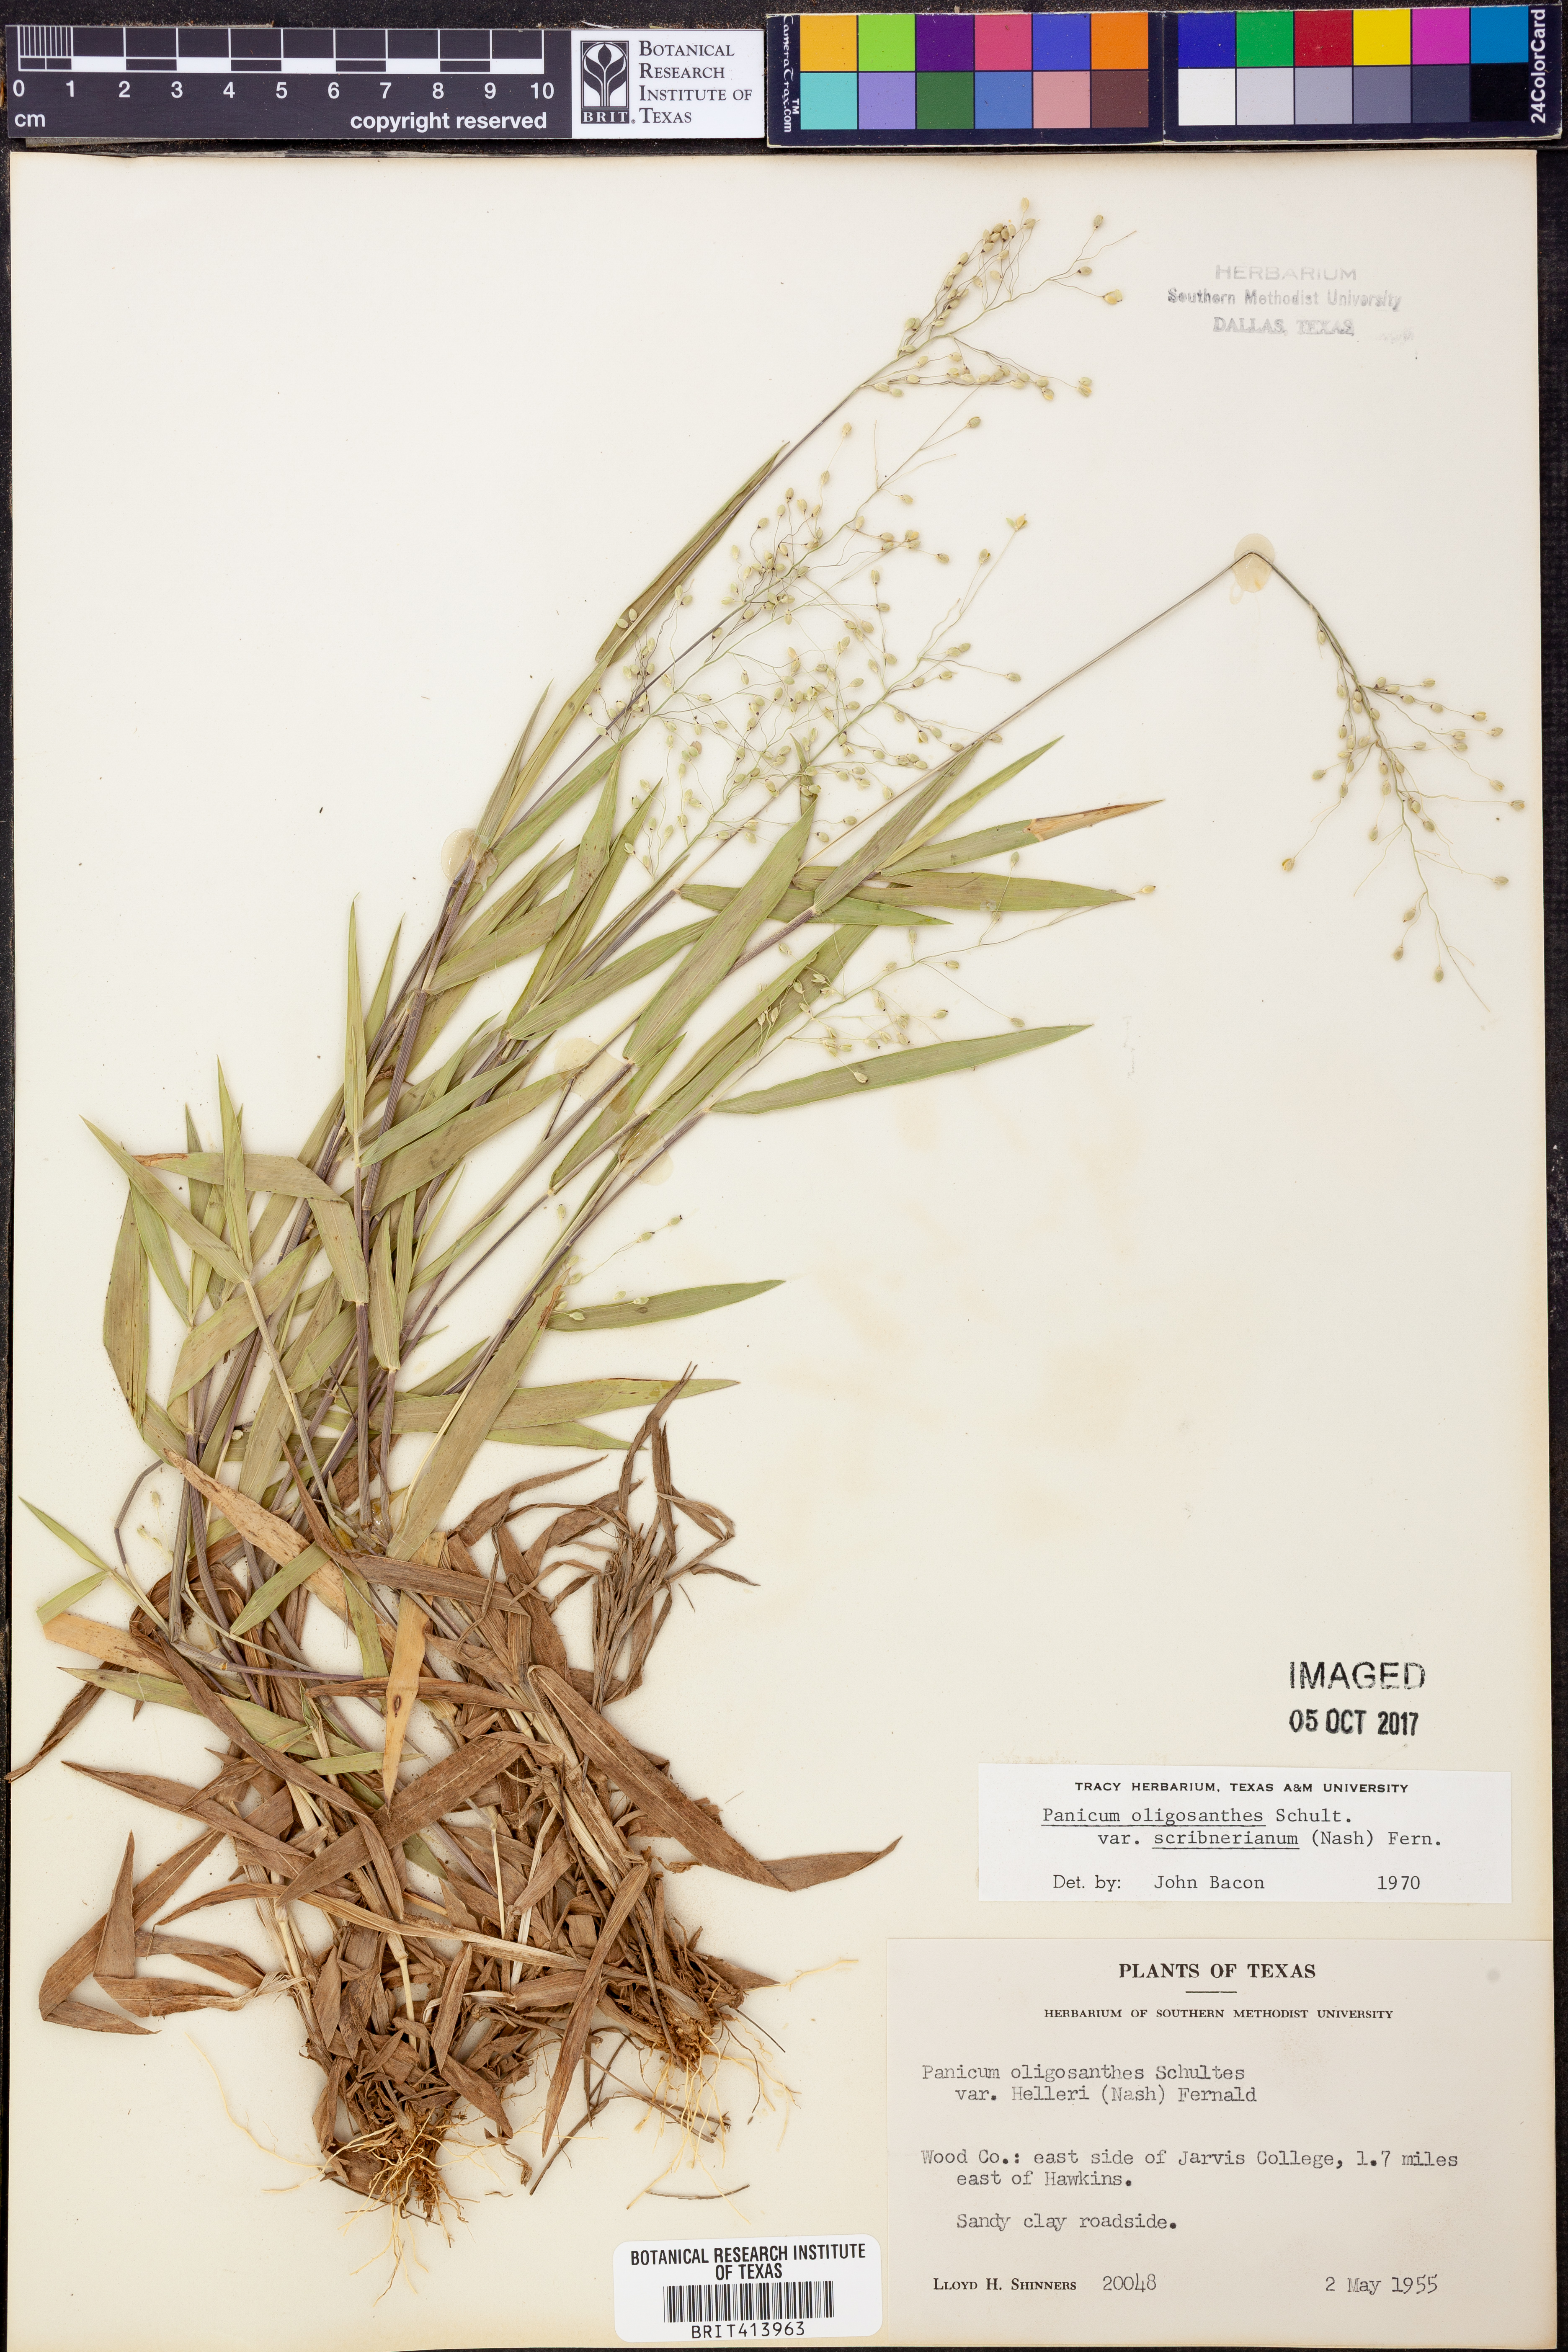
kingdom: Plantae
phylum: Tracheophyta
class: Liliopsida
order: Poales
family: Poaceae
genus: Dichanthelium
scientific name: Dichanthelium scribnerianum
